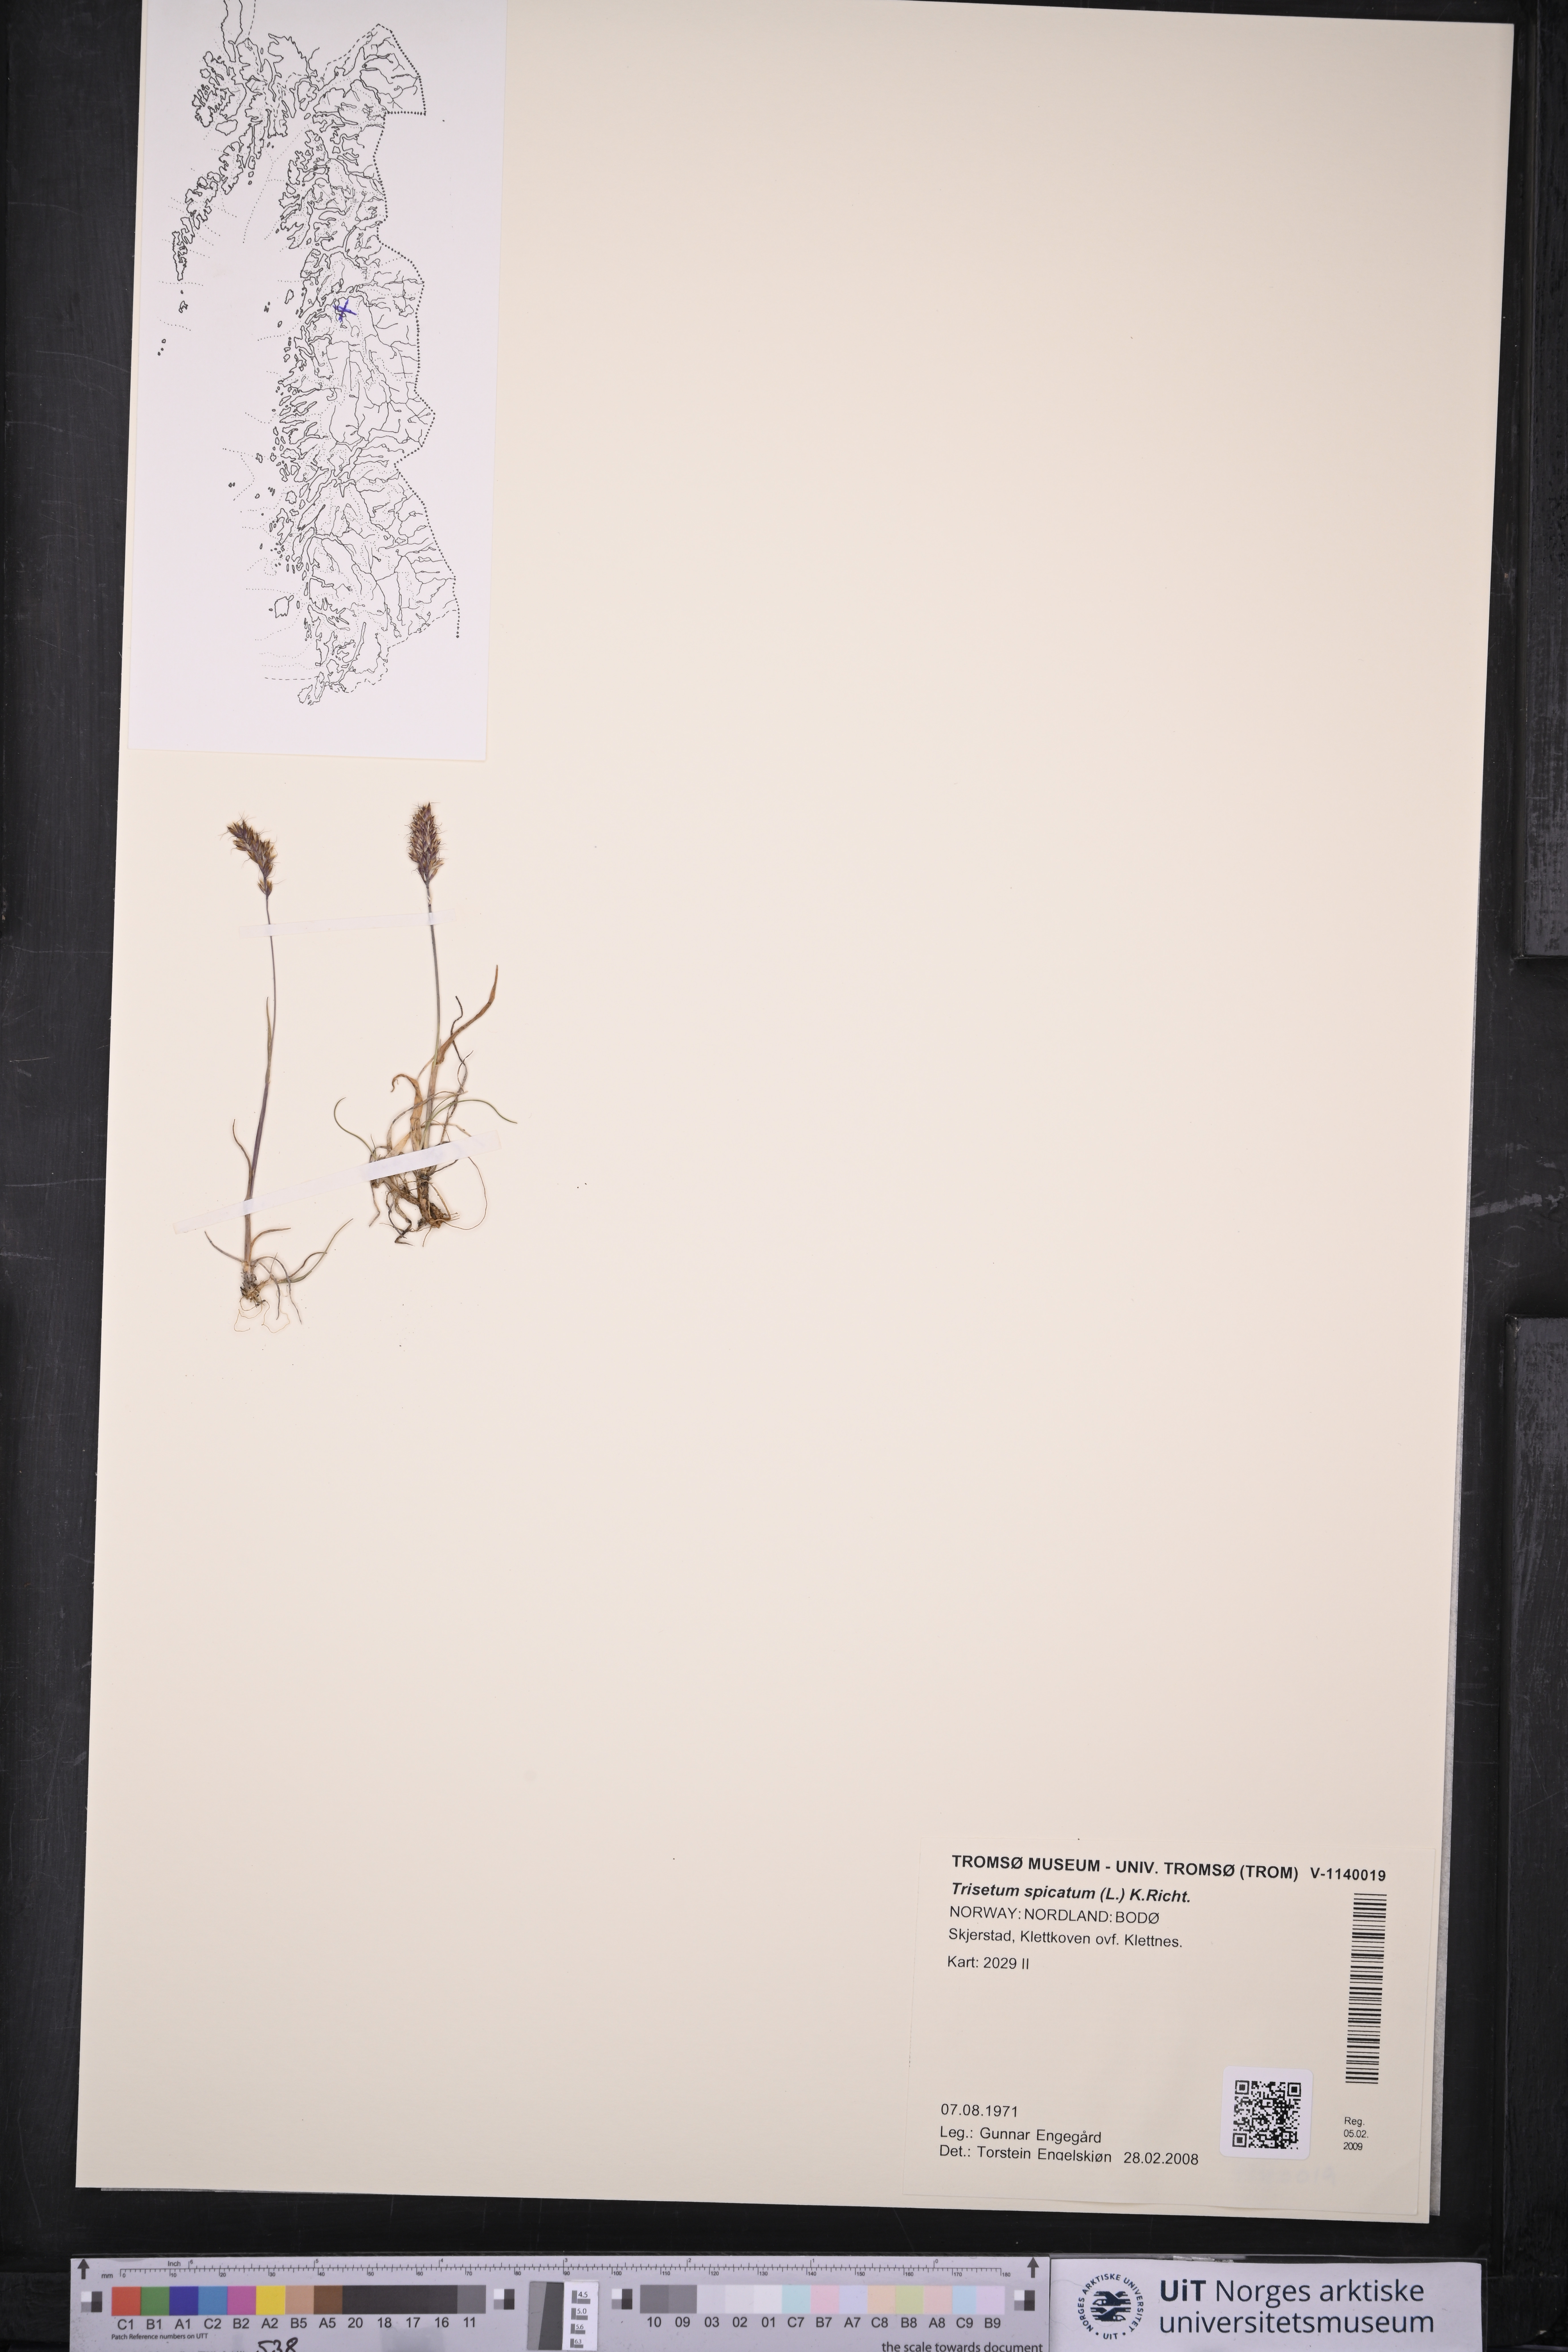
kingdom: Plantae
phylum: Tracheophyta
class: Liliopsida
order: Poales
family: Poaceae
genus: Koeleria
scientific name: Koeleria spicata
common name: Mountain trisetum
